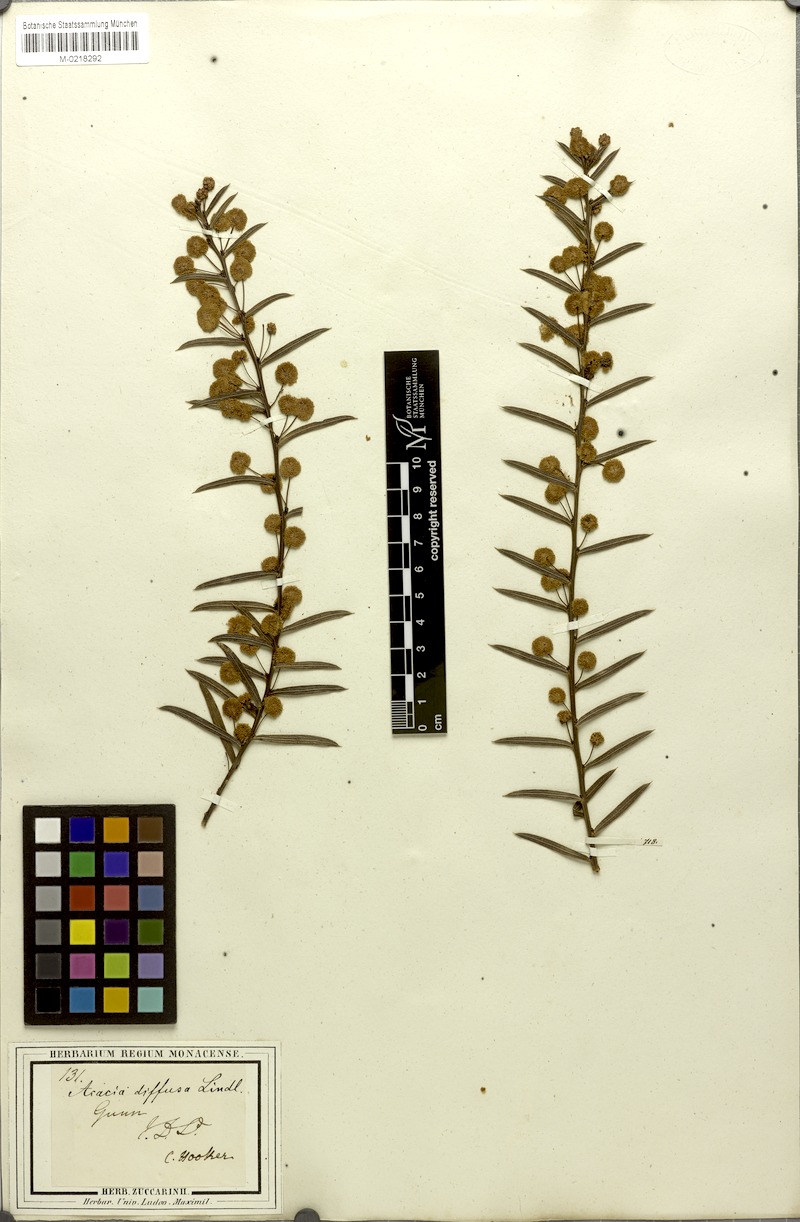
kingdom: Plantae
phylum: Tracheophyta
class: Magnoliopsida
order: Fabales
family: Fabaceae
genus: Acacia
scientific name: Acacia genistifolia
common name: Early wattle
